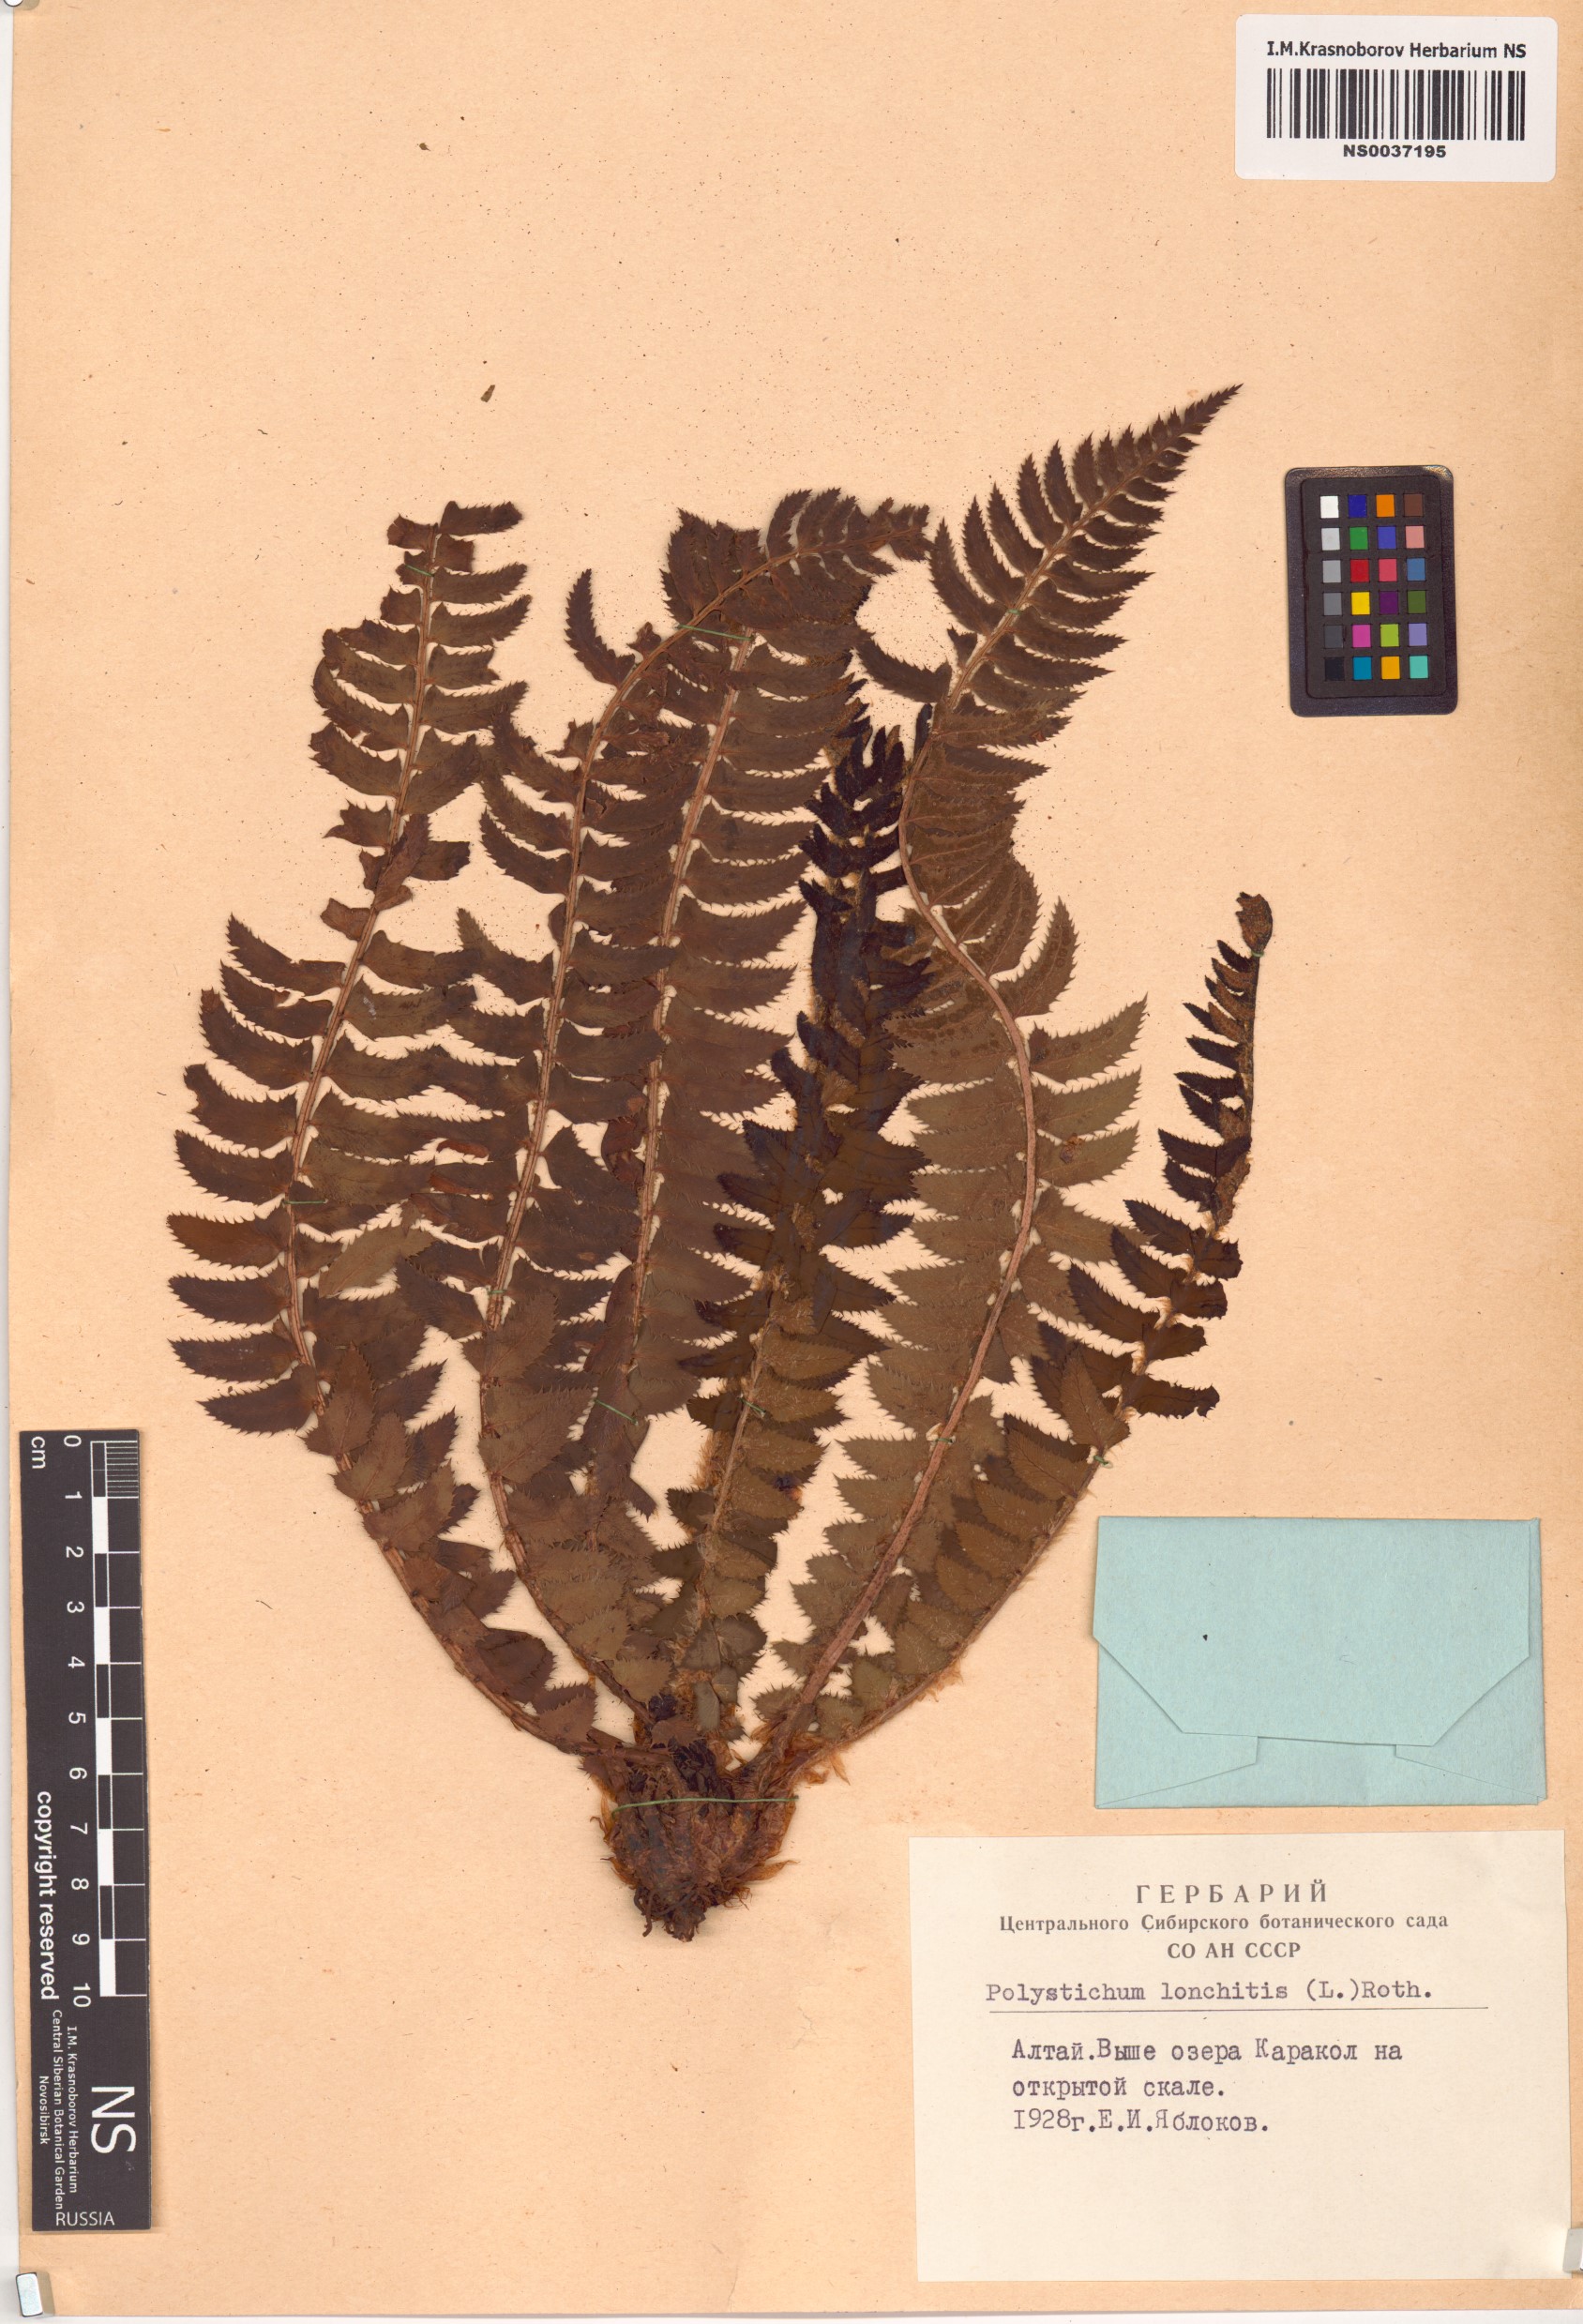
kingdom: Plantae
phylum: Tracheophyta
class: Polypodiopsida
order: Polypodiales
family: Dryopteridaceae
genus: Polystichum
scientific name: Polystichum lonchitis
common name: Holly fern
